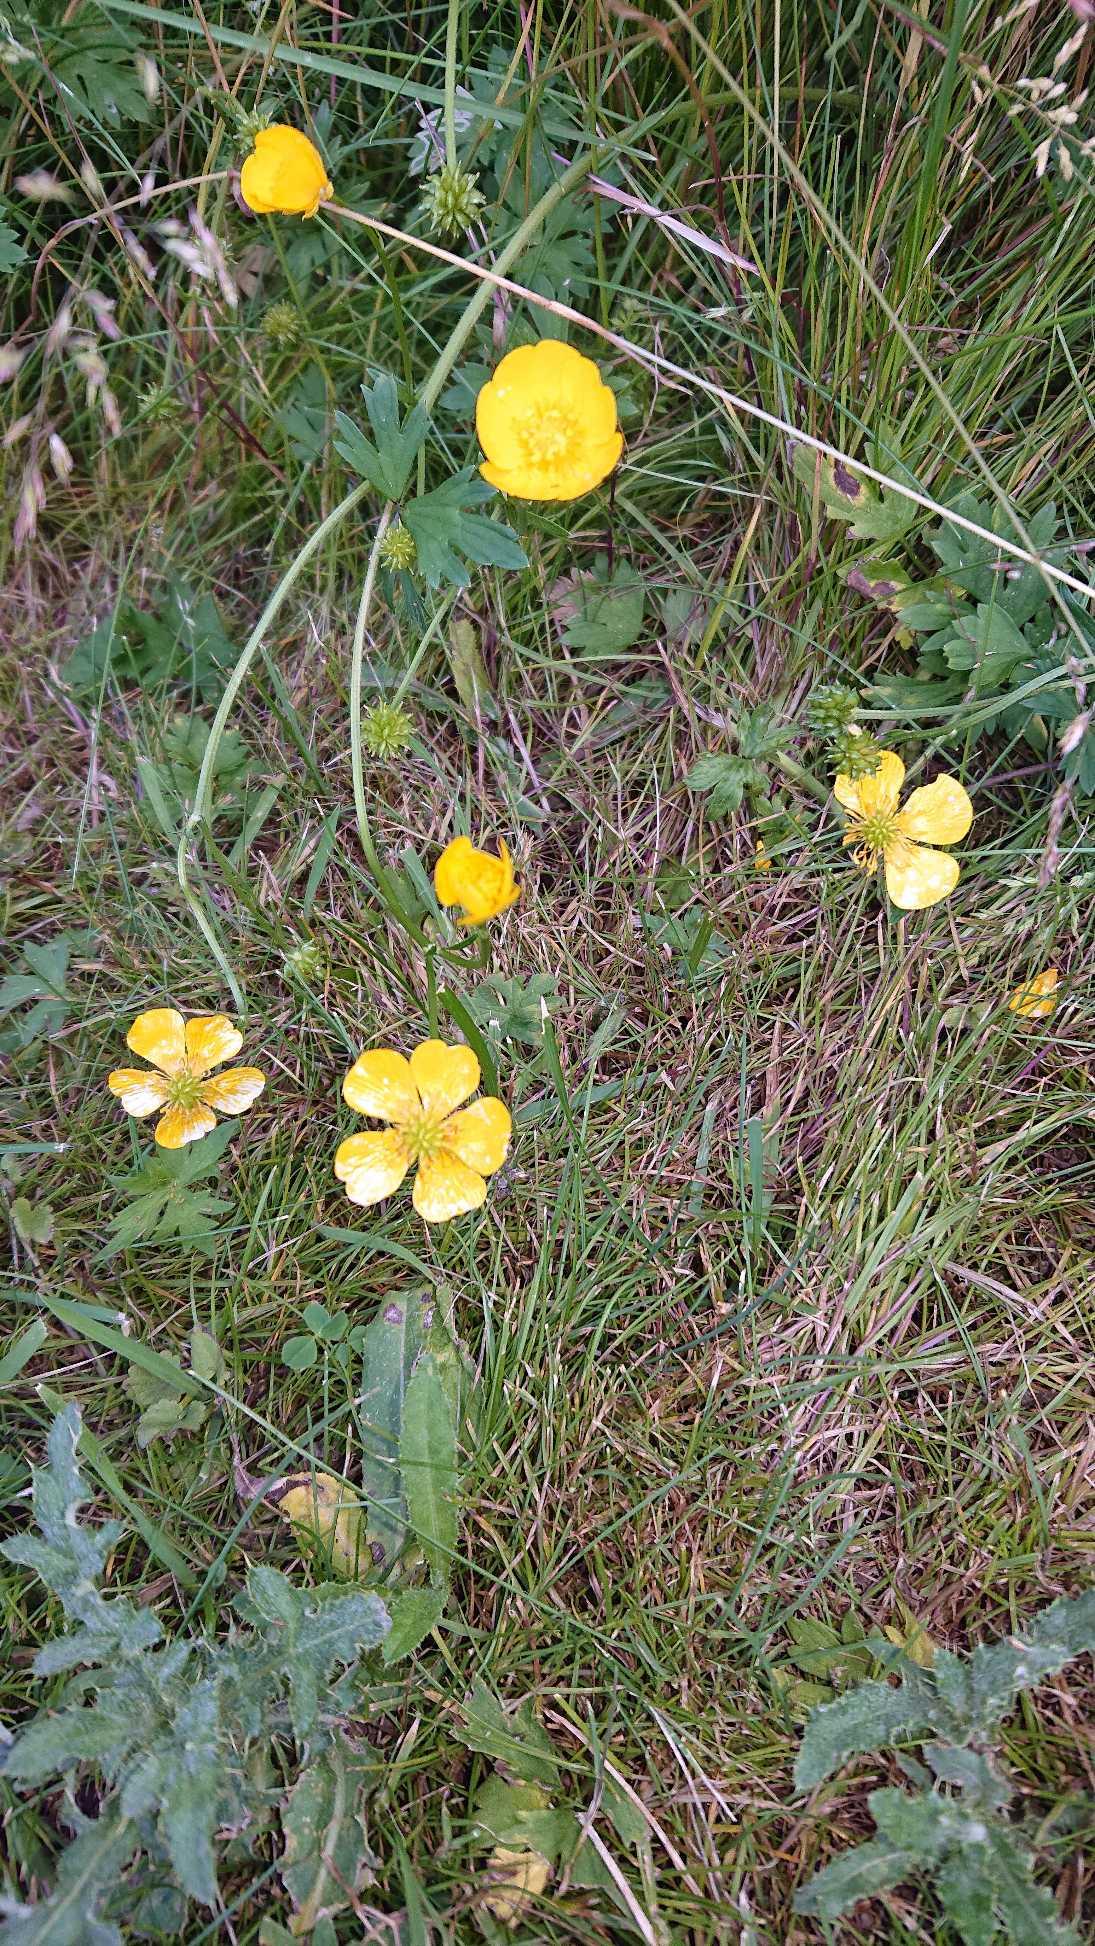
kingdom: Plantae
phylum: Tracheophyta
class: Magnoliopsida
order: Ranunculales
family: Ranunculaceae
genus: Ranunculus
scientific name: Ranunculus repens
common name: Lav ranunkel
